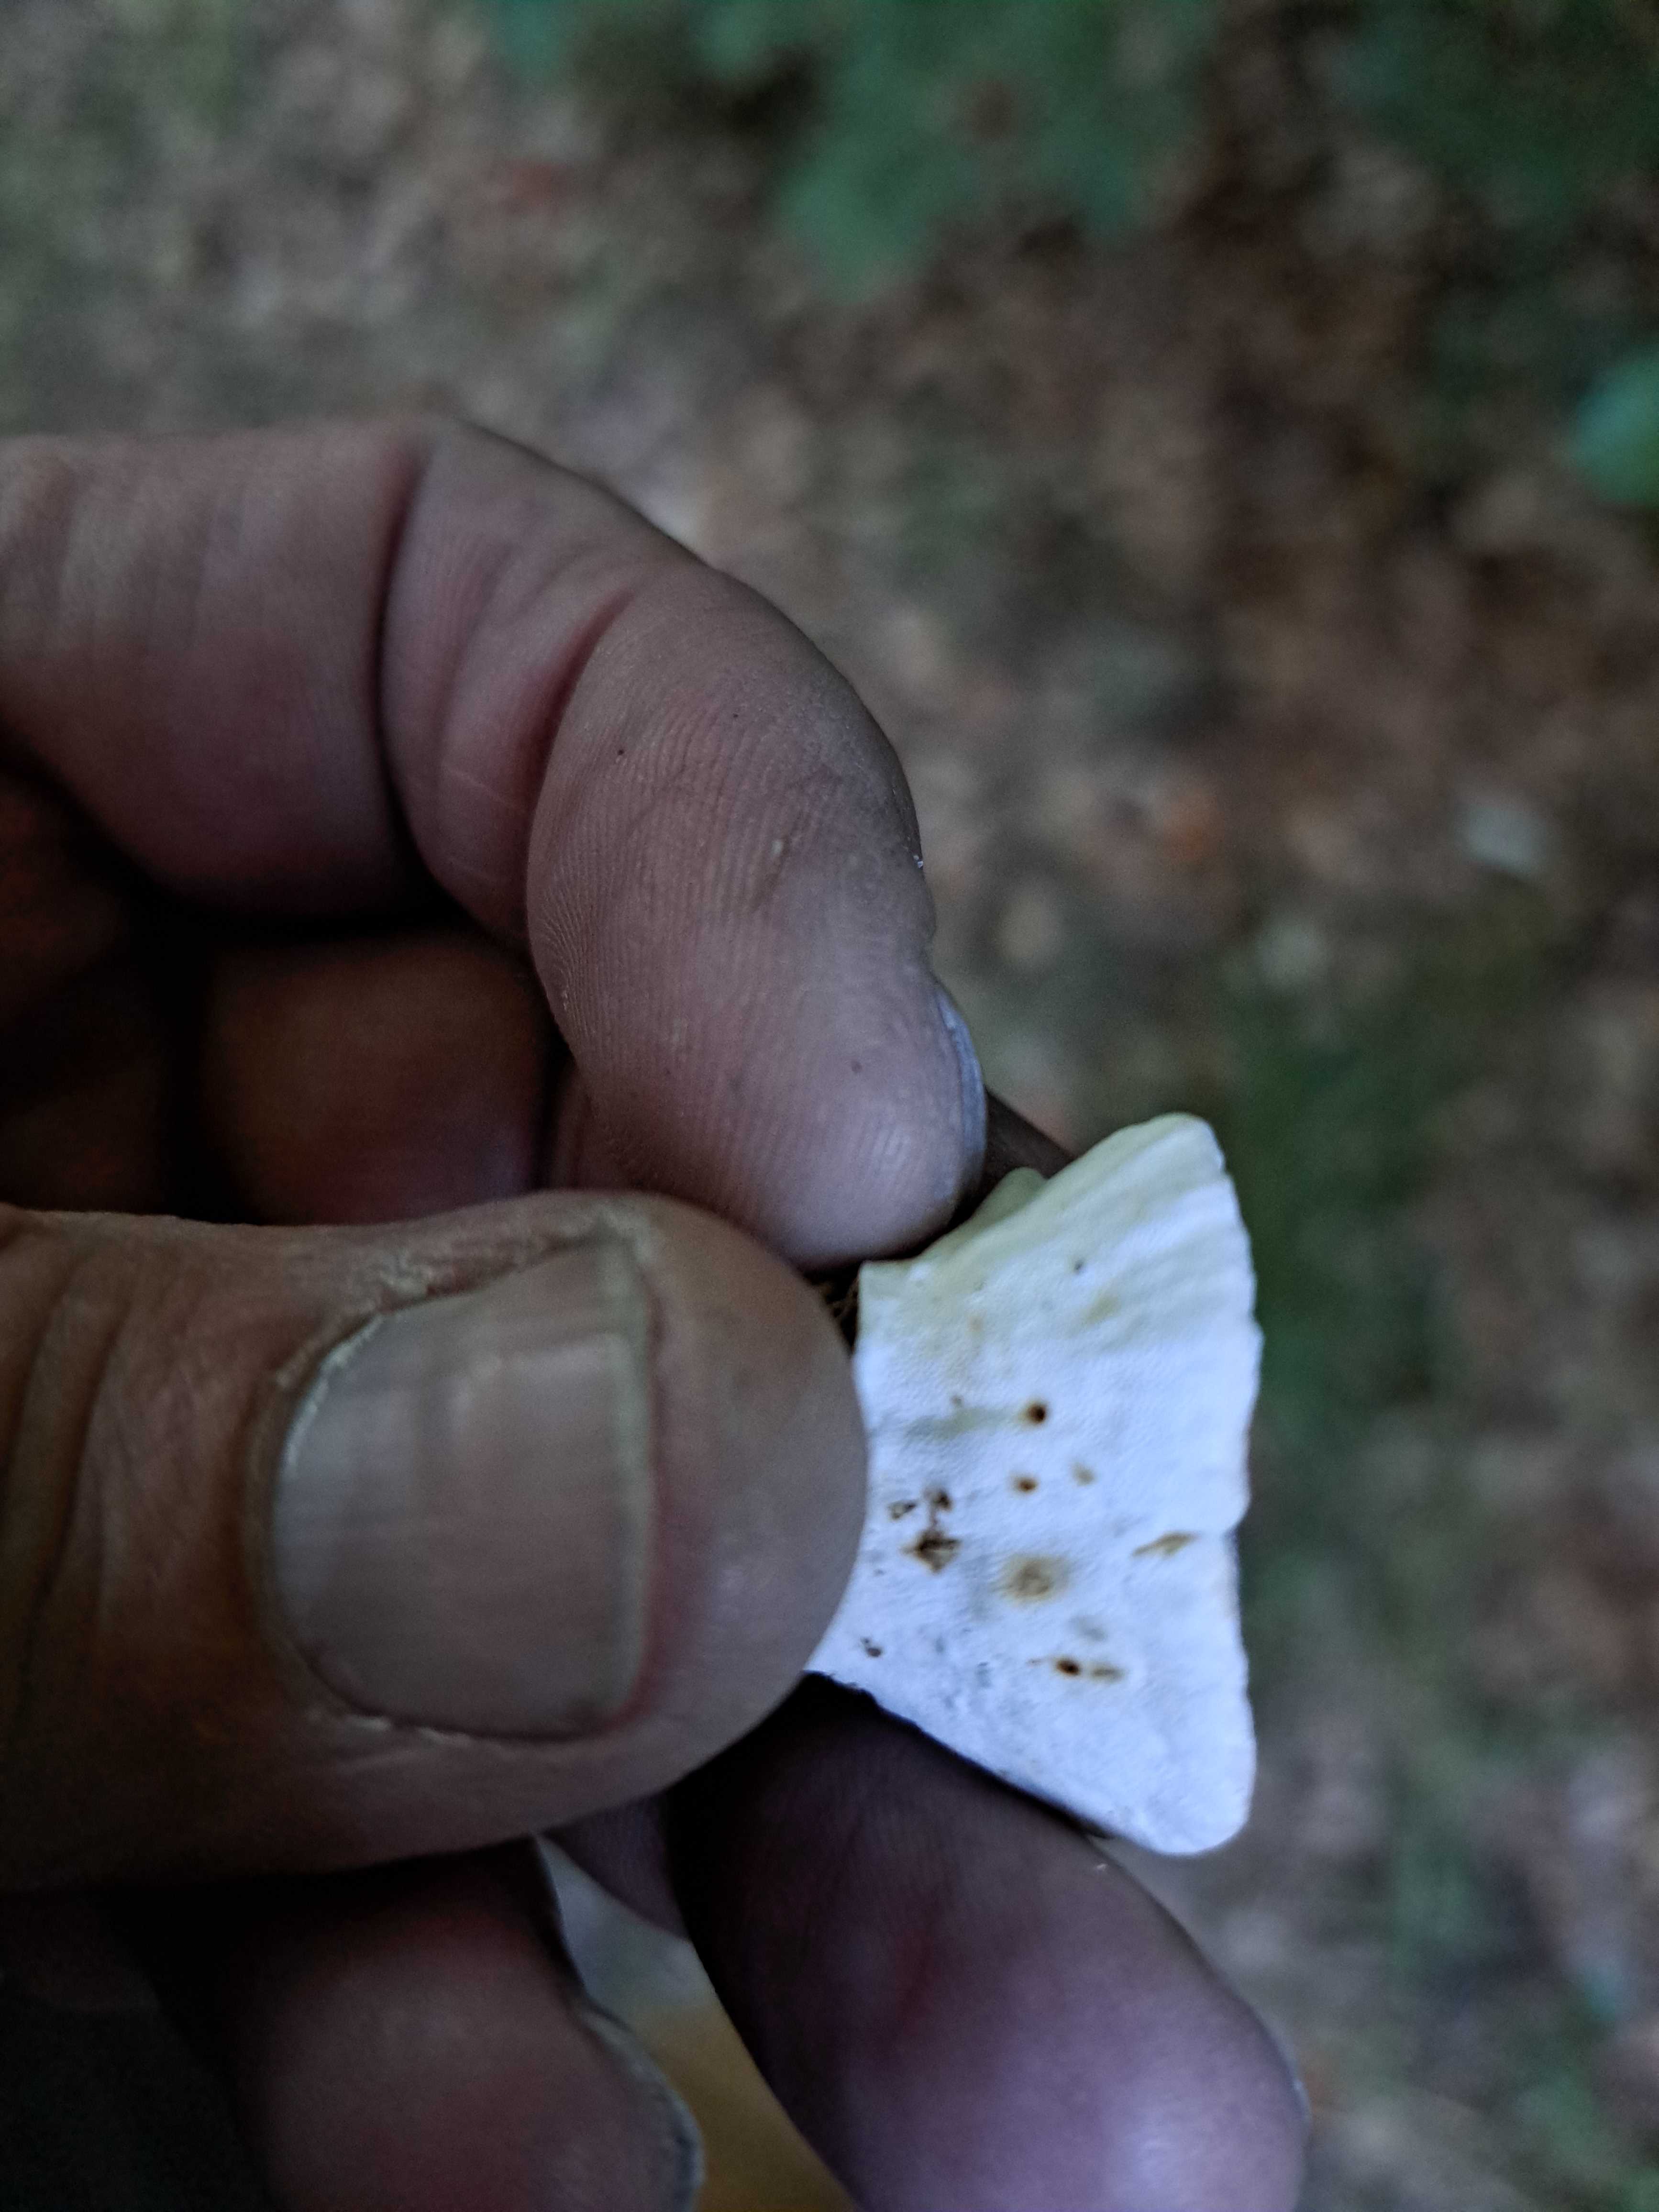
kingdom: Fungi
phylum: Basidiomycota
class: Agaricomycetes
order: Polyporales
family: Polyporaceae
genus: Trametes
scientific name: Trametes versicolor
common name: broget læderporesvamp
